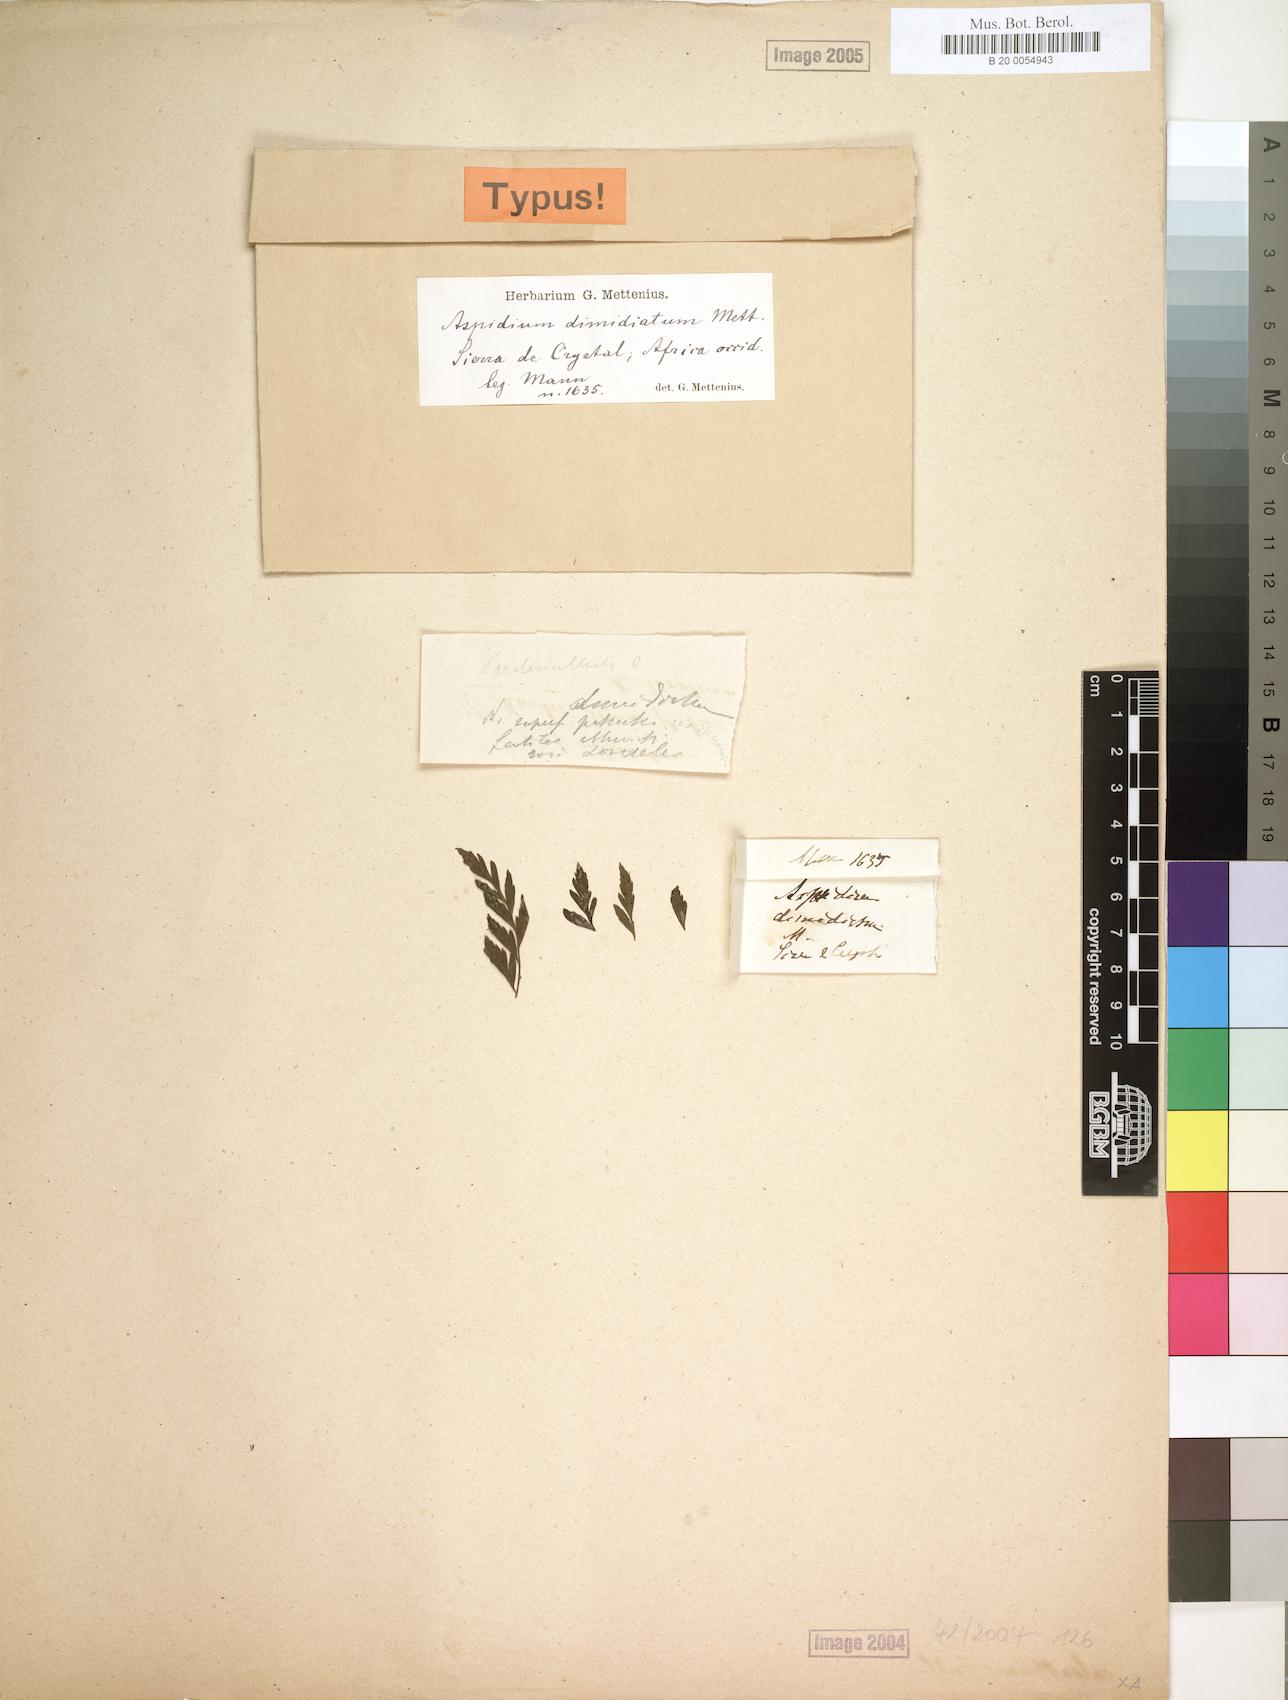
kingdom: Plantae
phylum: Tracheophyta
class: Polypodiopsida
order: Polypodiales
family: Tectariaceae
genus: Triplophyllum
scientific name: Triplophyllum dimidiatum
